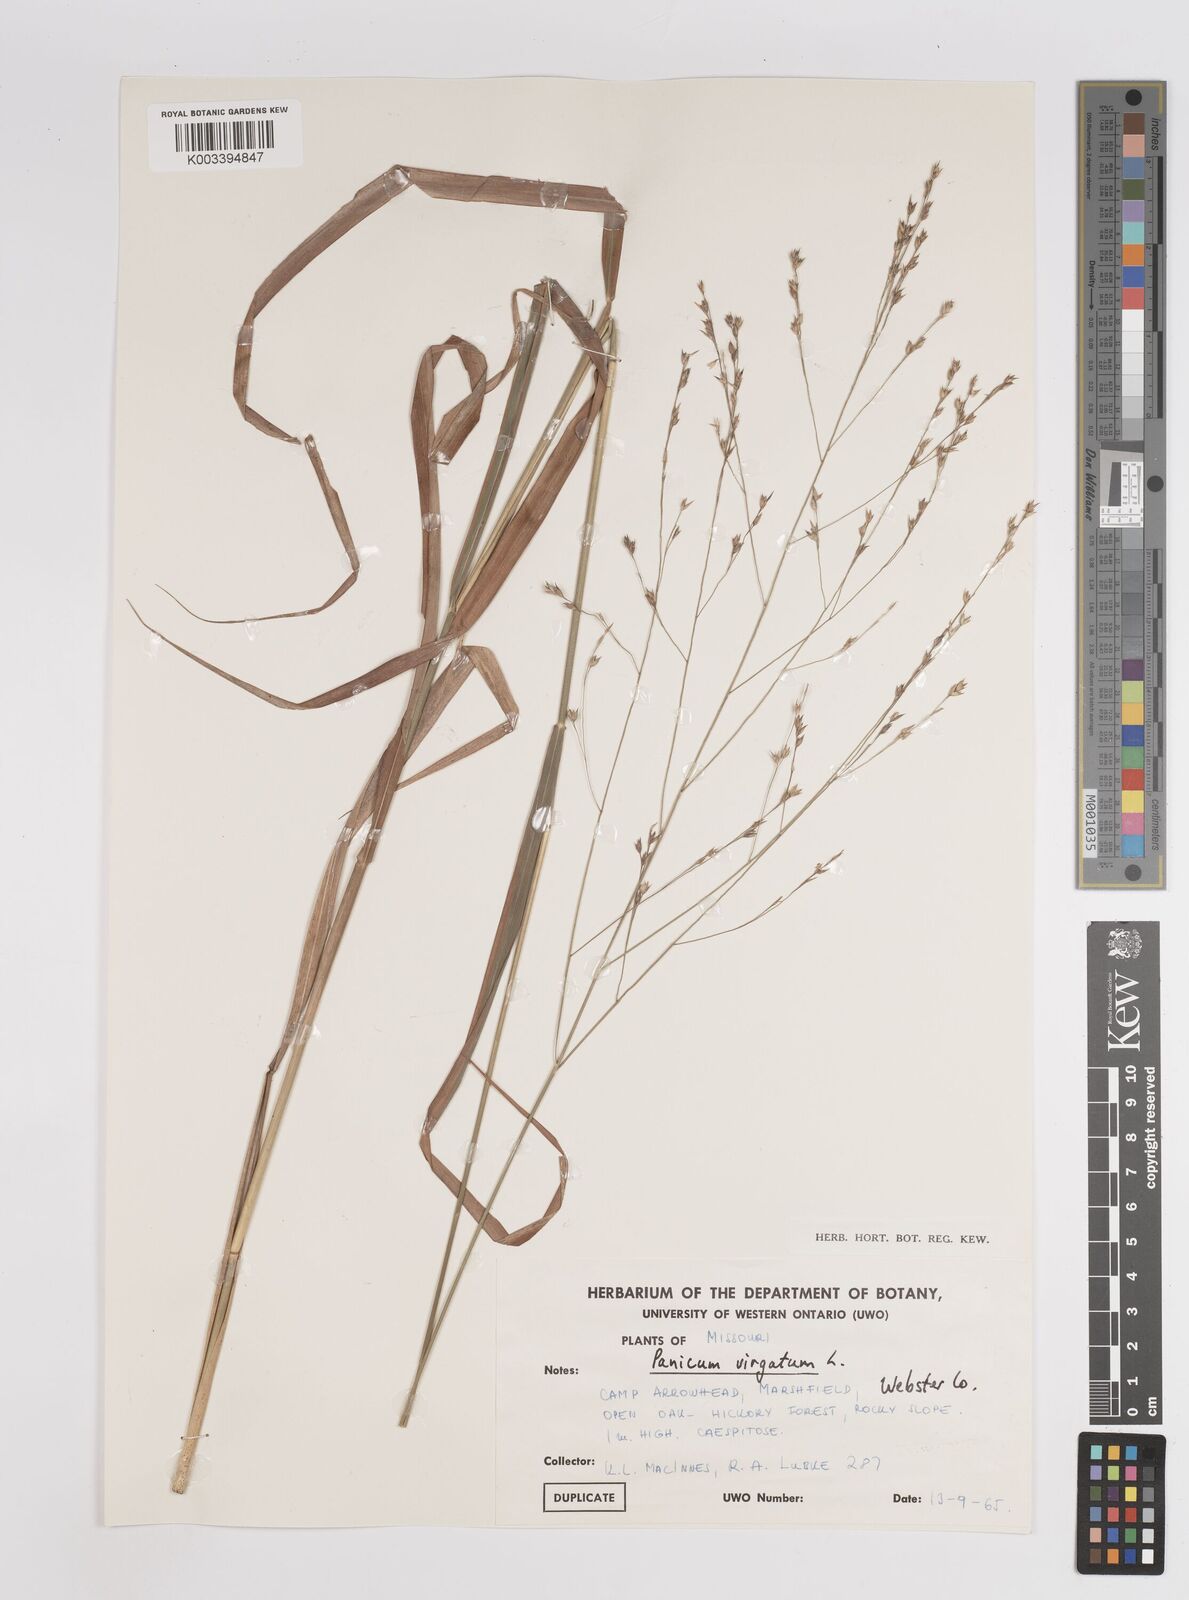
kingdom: Plantae
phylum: Tracheophyta
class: Liliopsida
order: Poales
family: Poaceae
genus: Panicum
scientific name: Panicum virgatum
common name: Switchgrass
